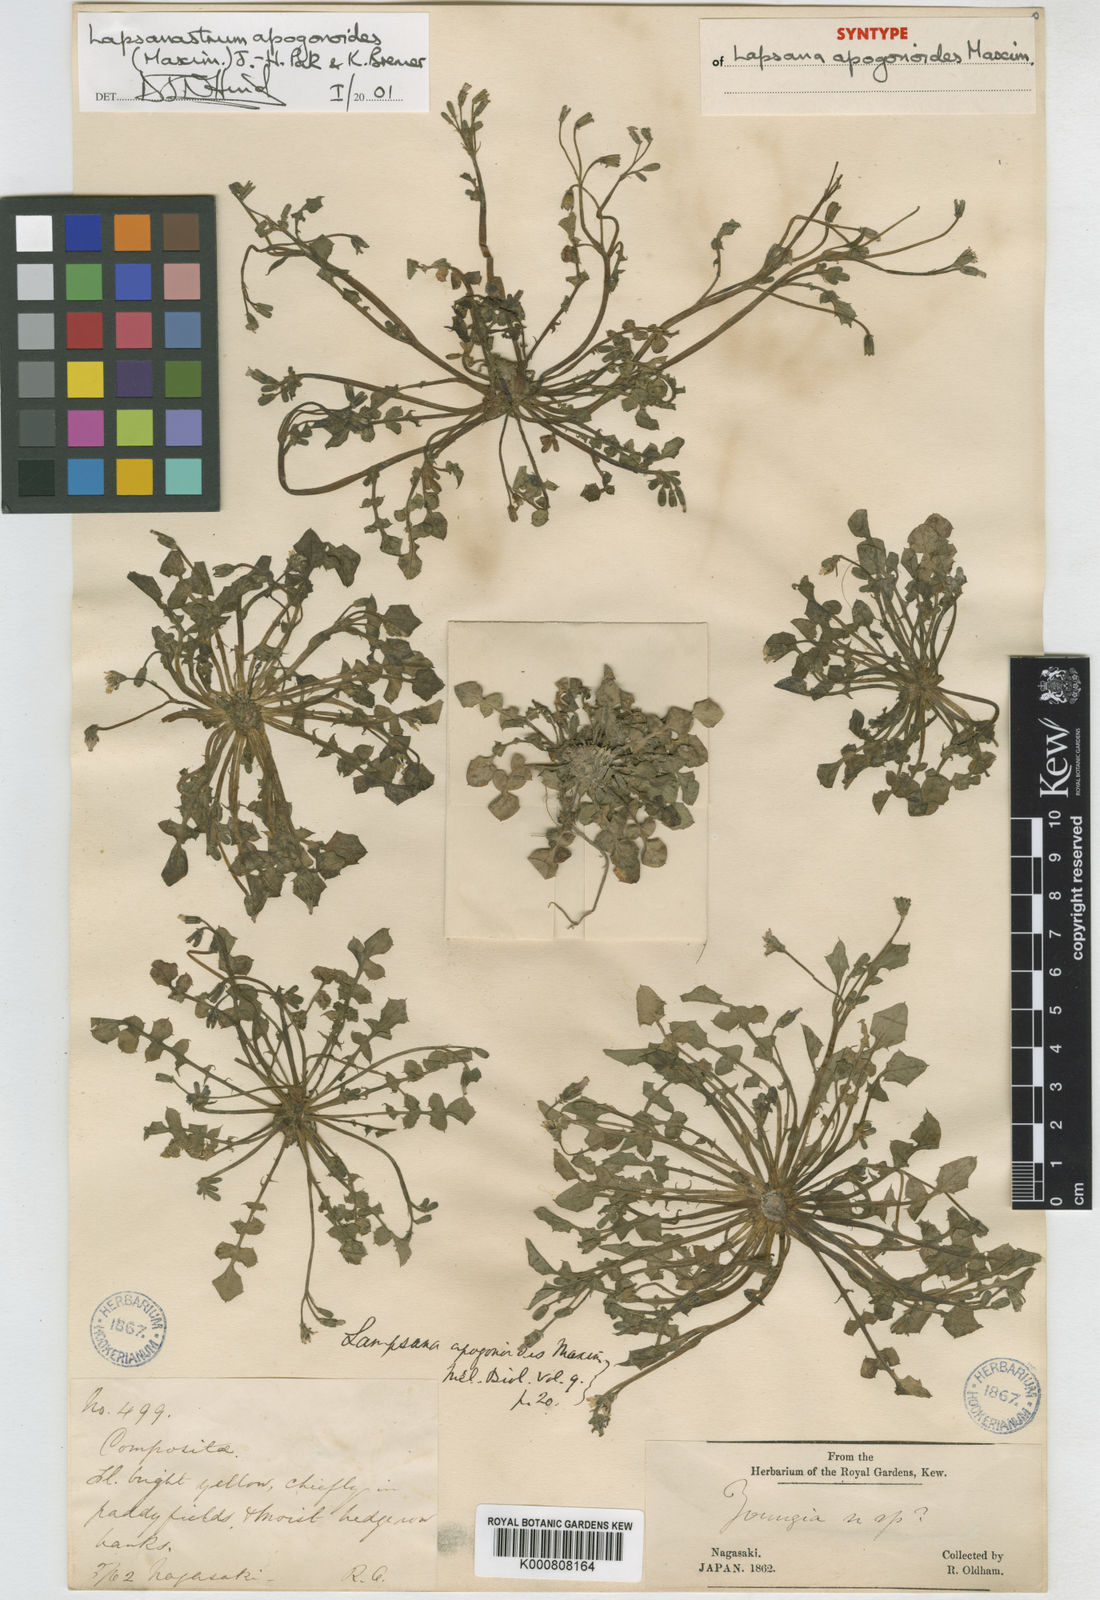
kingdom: Plantae
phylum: Tracheophyta
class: Magnoliopsida
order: Asterales
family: Asteraceae
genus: Lapsanastrum
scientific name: Lapsanastrum apogonoides
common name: Japanese nipplewort
